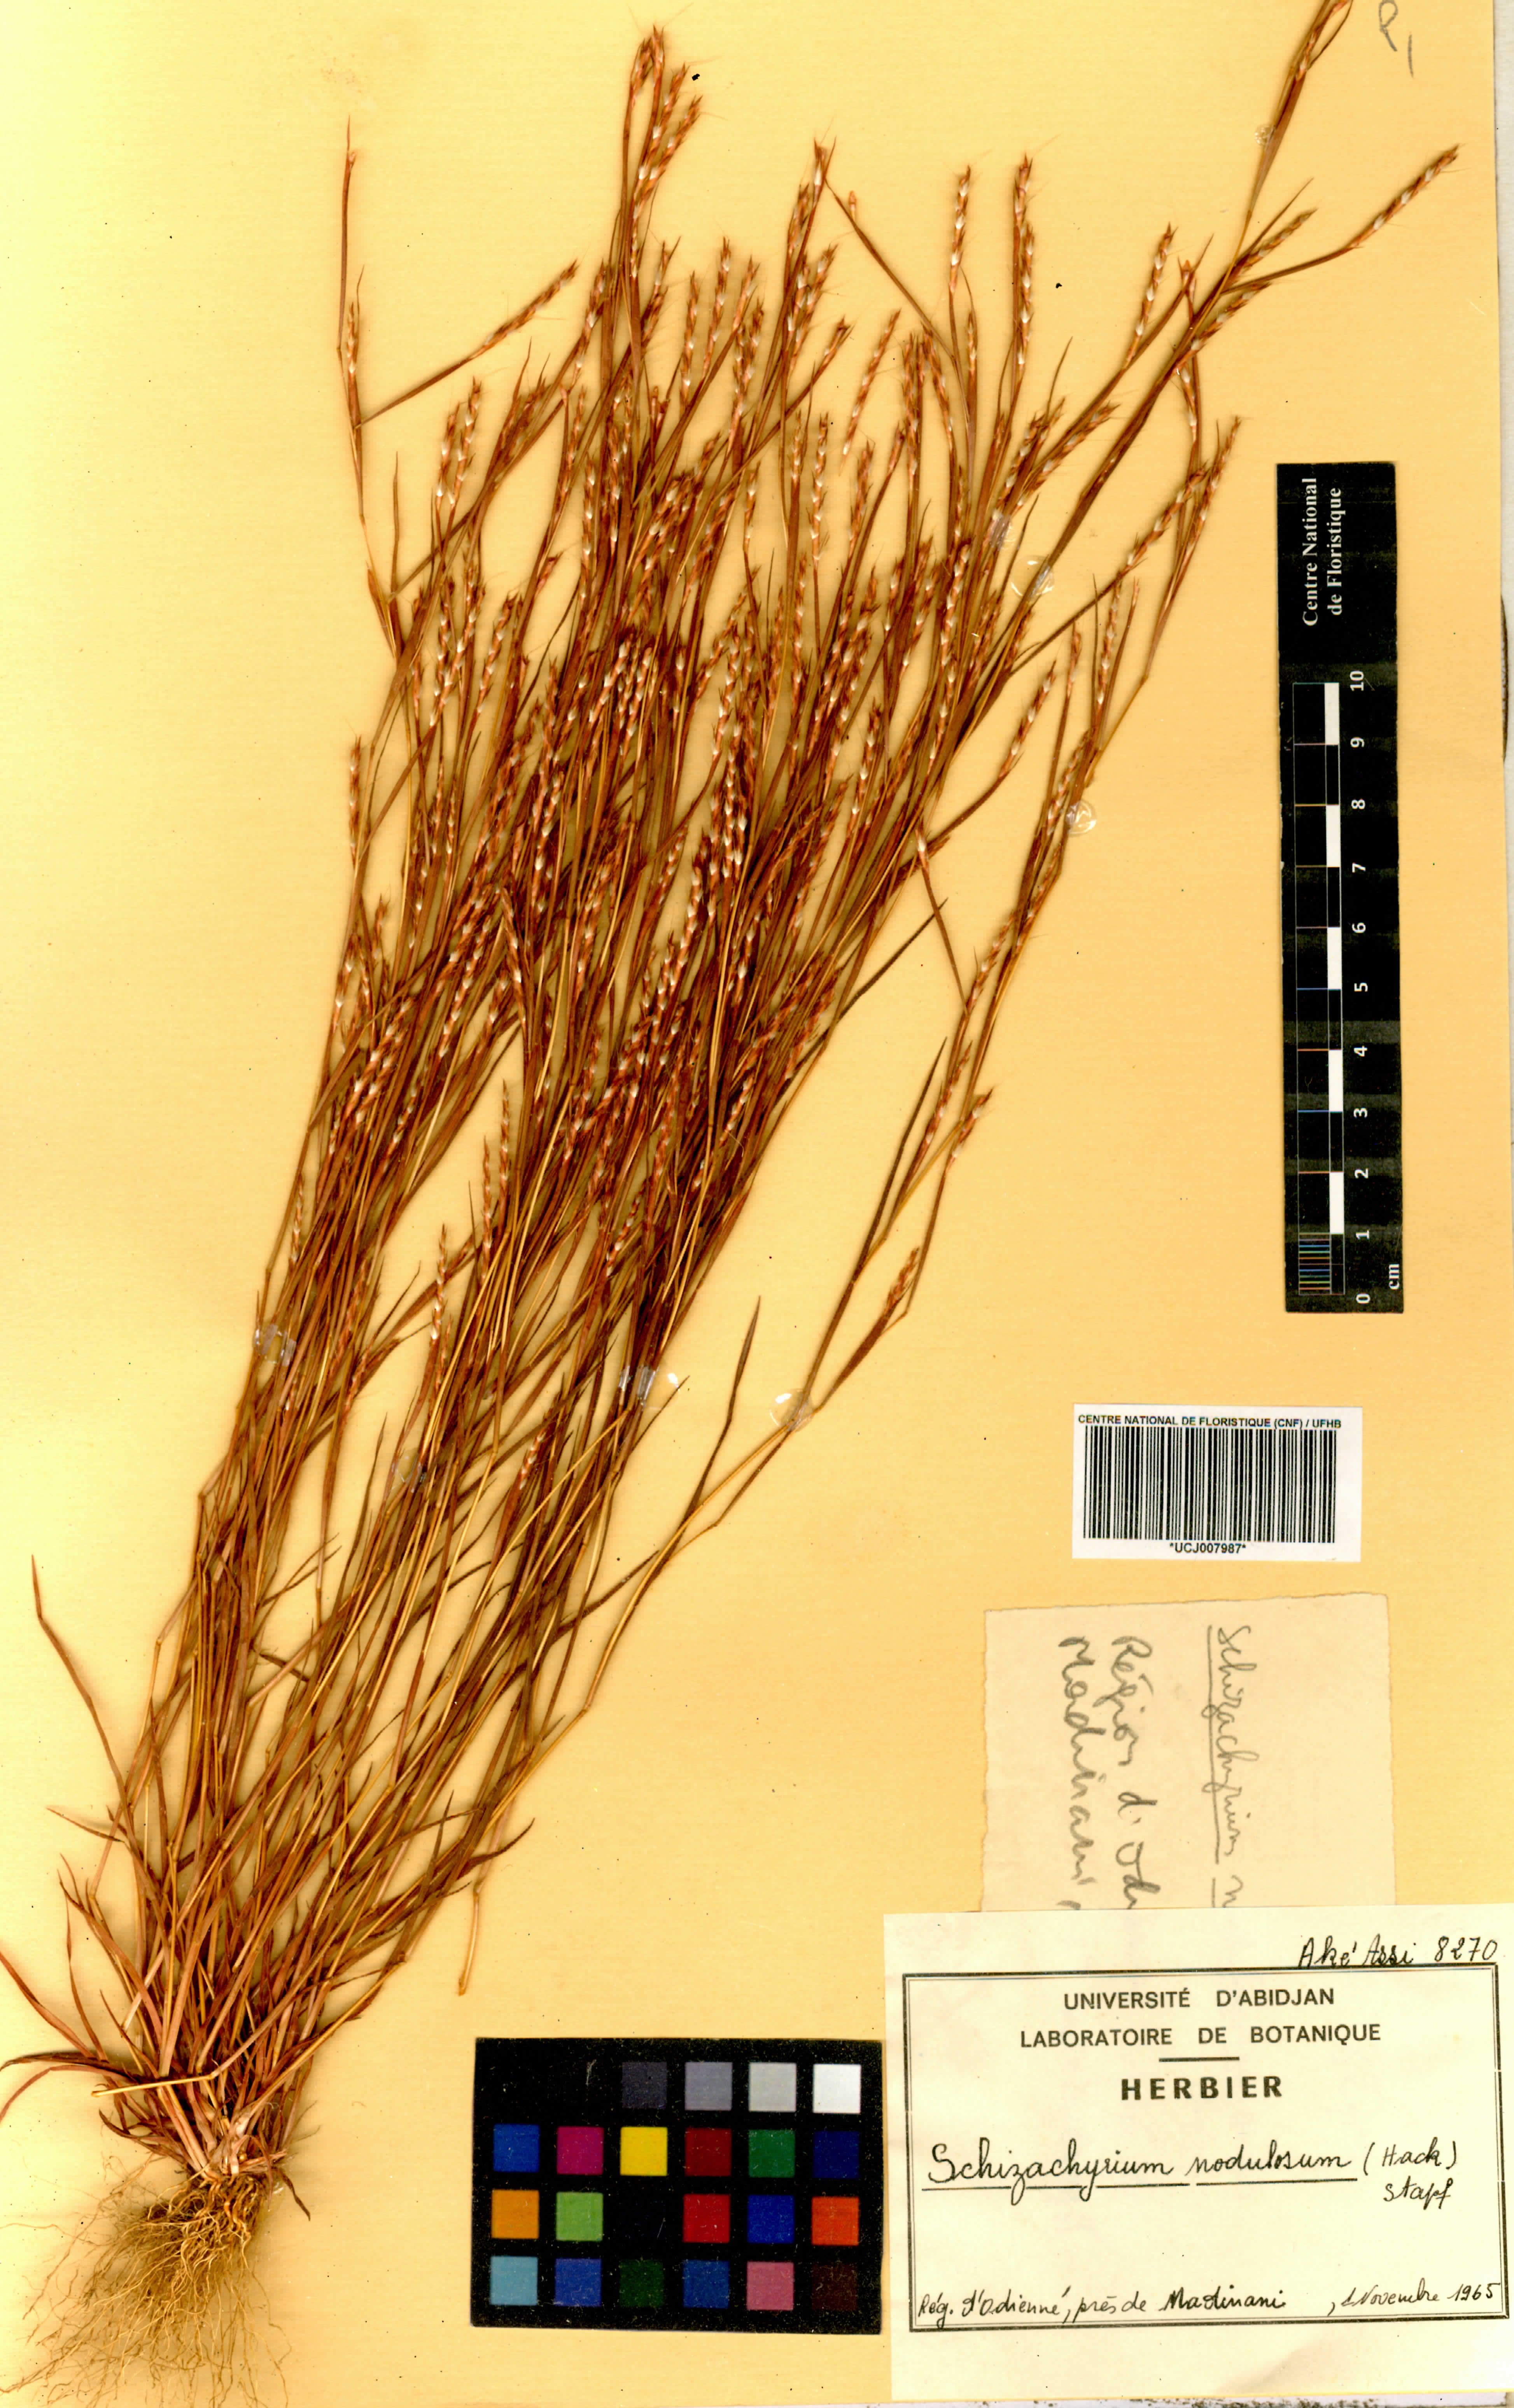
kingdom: Plantae
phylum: Tracheophyta
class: Liliopsida
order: Poales
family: Poaceae
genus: Schizachyrium
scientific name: Schizachyrium nodulosum
